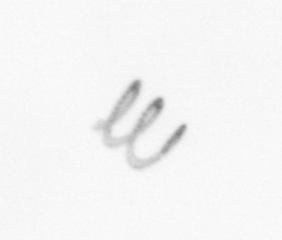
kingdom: Chromista
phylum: Ochrophyta
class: Bacillariophyceae
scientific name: Bacillariophyceae
